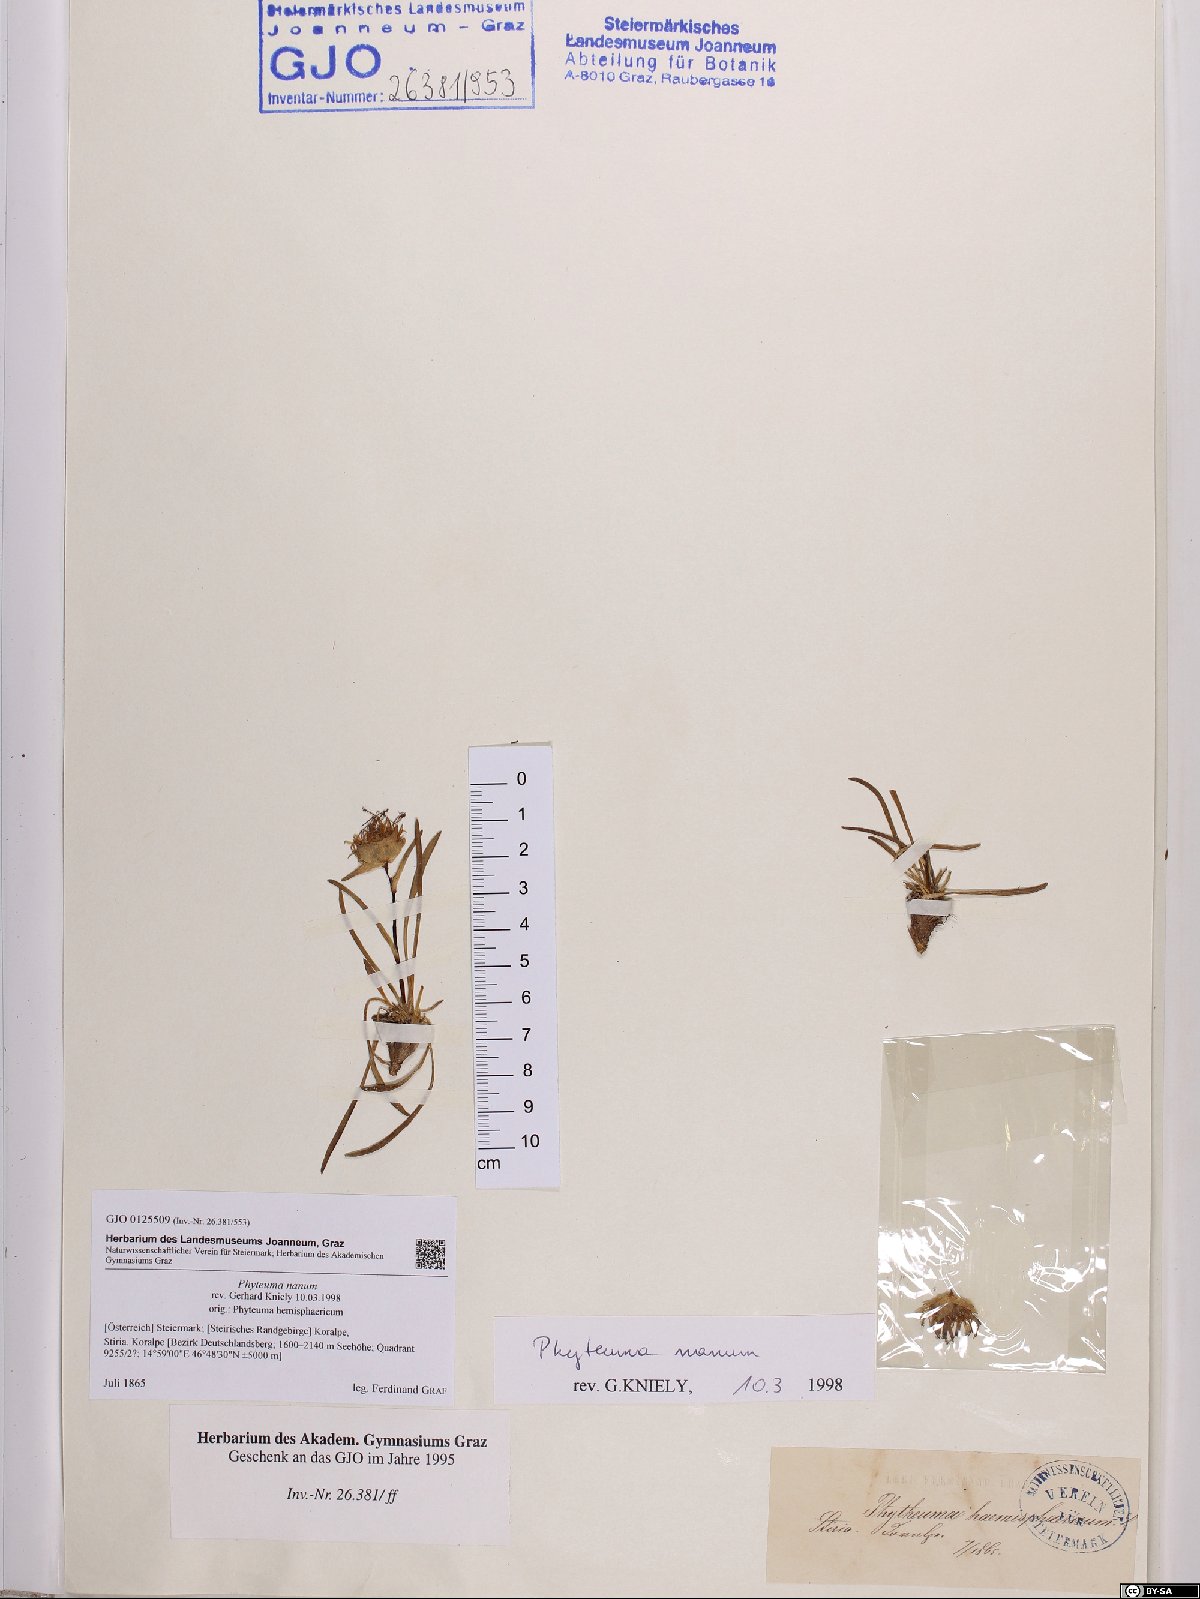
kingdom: Plantae
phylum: Tracheophyta
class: Magnoliopsida
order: Asterales
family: Campanulaceae
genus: Phyteuma
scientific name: Phyteuma globulariifolium
